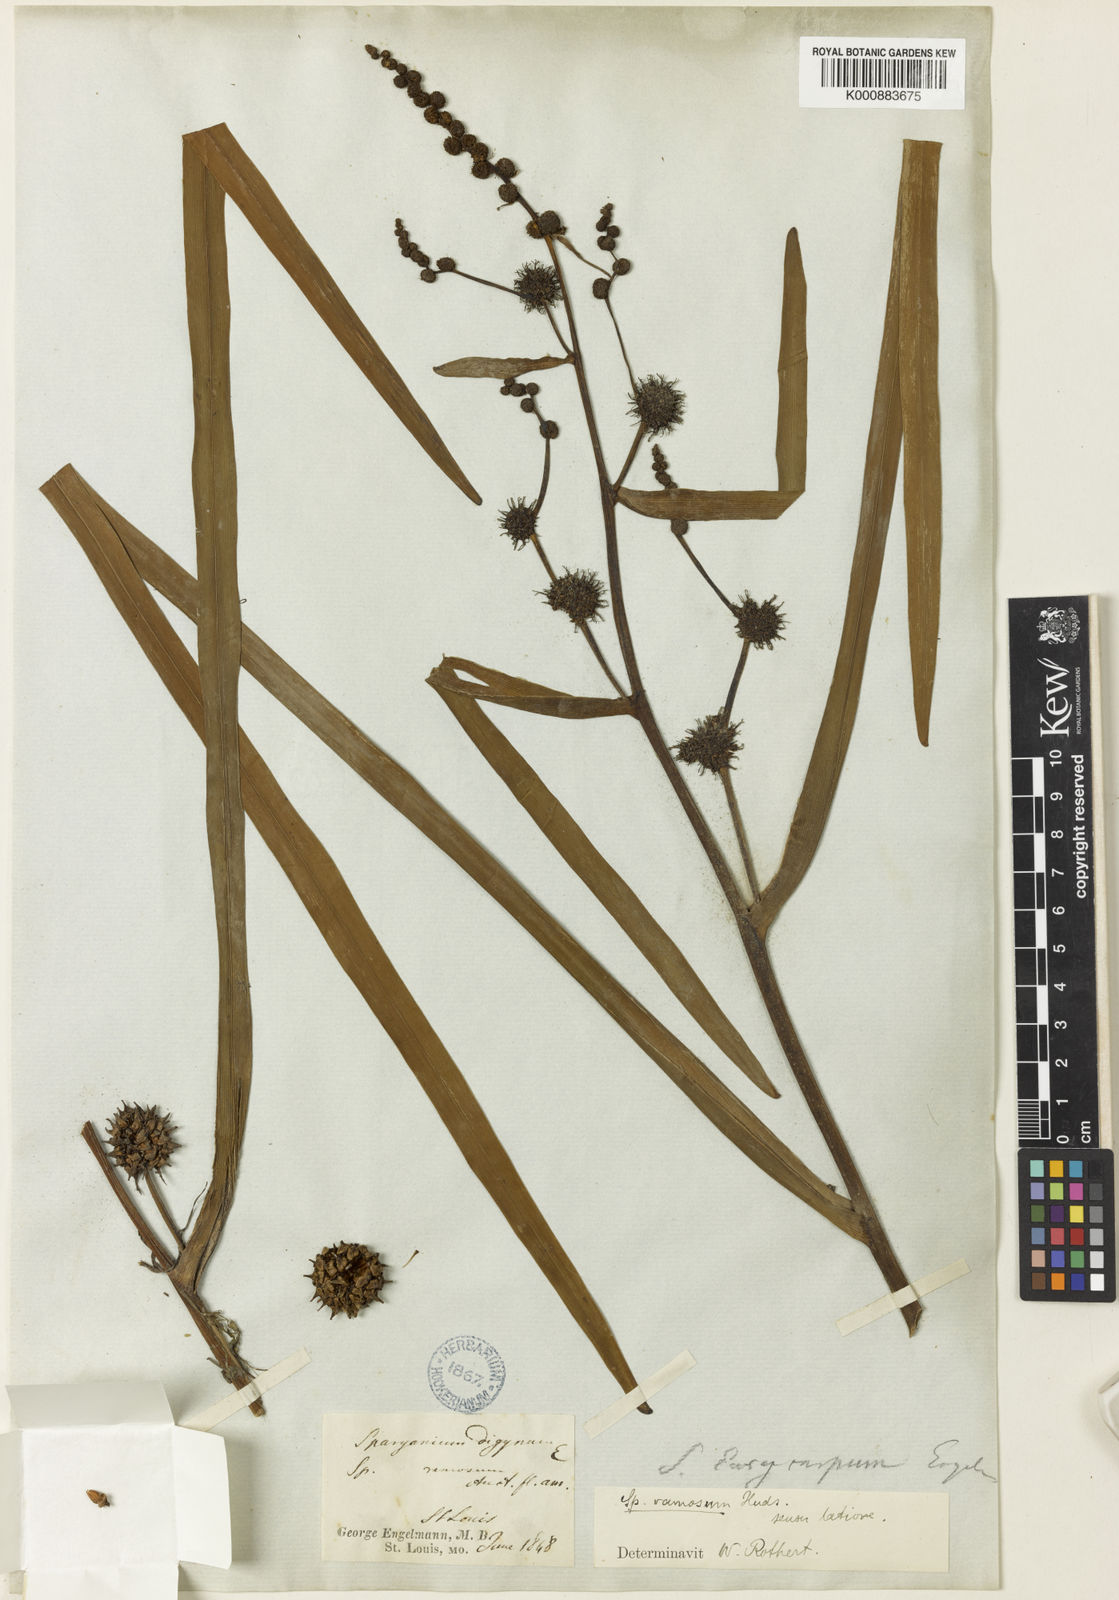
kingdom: Plantae
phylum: Tracheophyta
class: Liliopsida
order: Poales
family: Typhaceae
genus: Sparganium
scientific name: Sparganium eurycarpum
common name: Broad-fruited burreed
